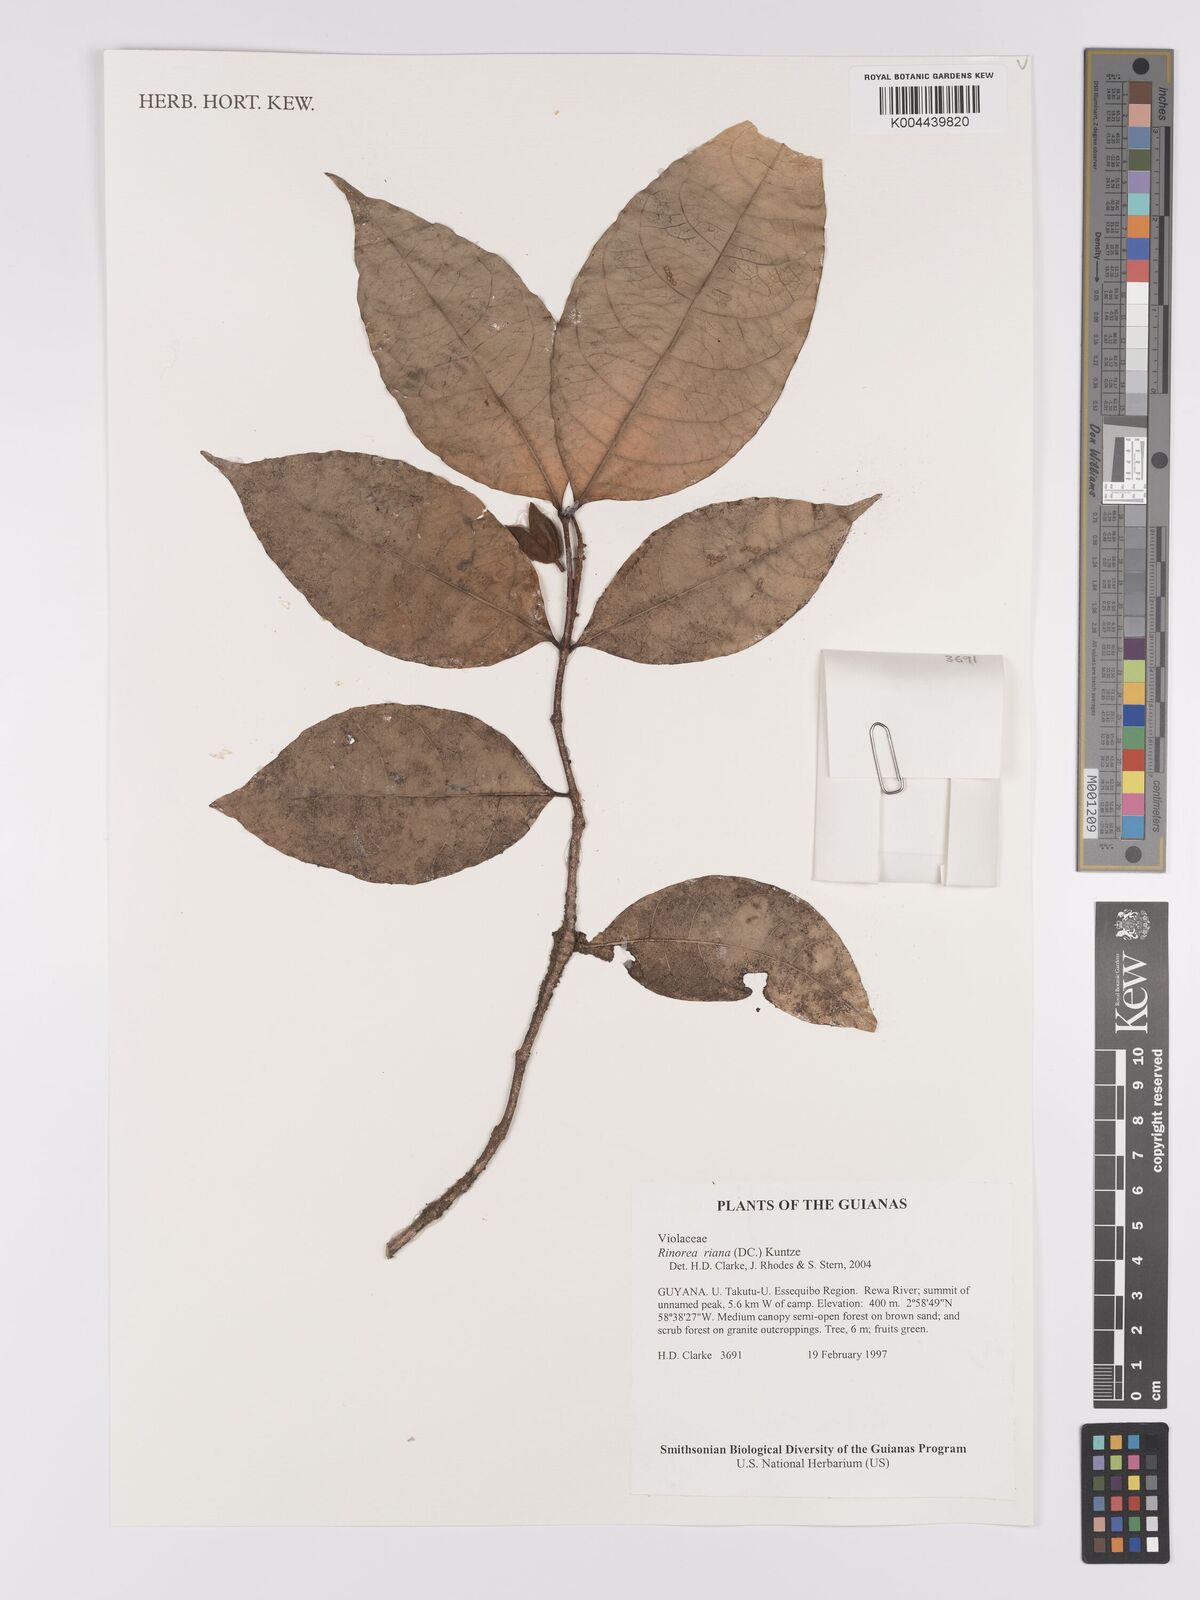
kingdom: Plantae
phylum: Tracheophyta
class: Magnoliopsida
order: Malpighiales
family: Violaceae
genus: Rinorea
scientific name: Rinorea riana
